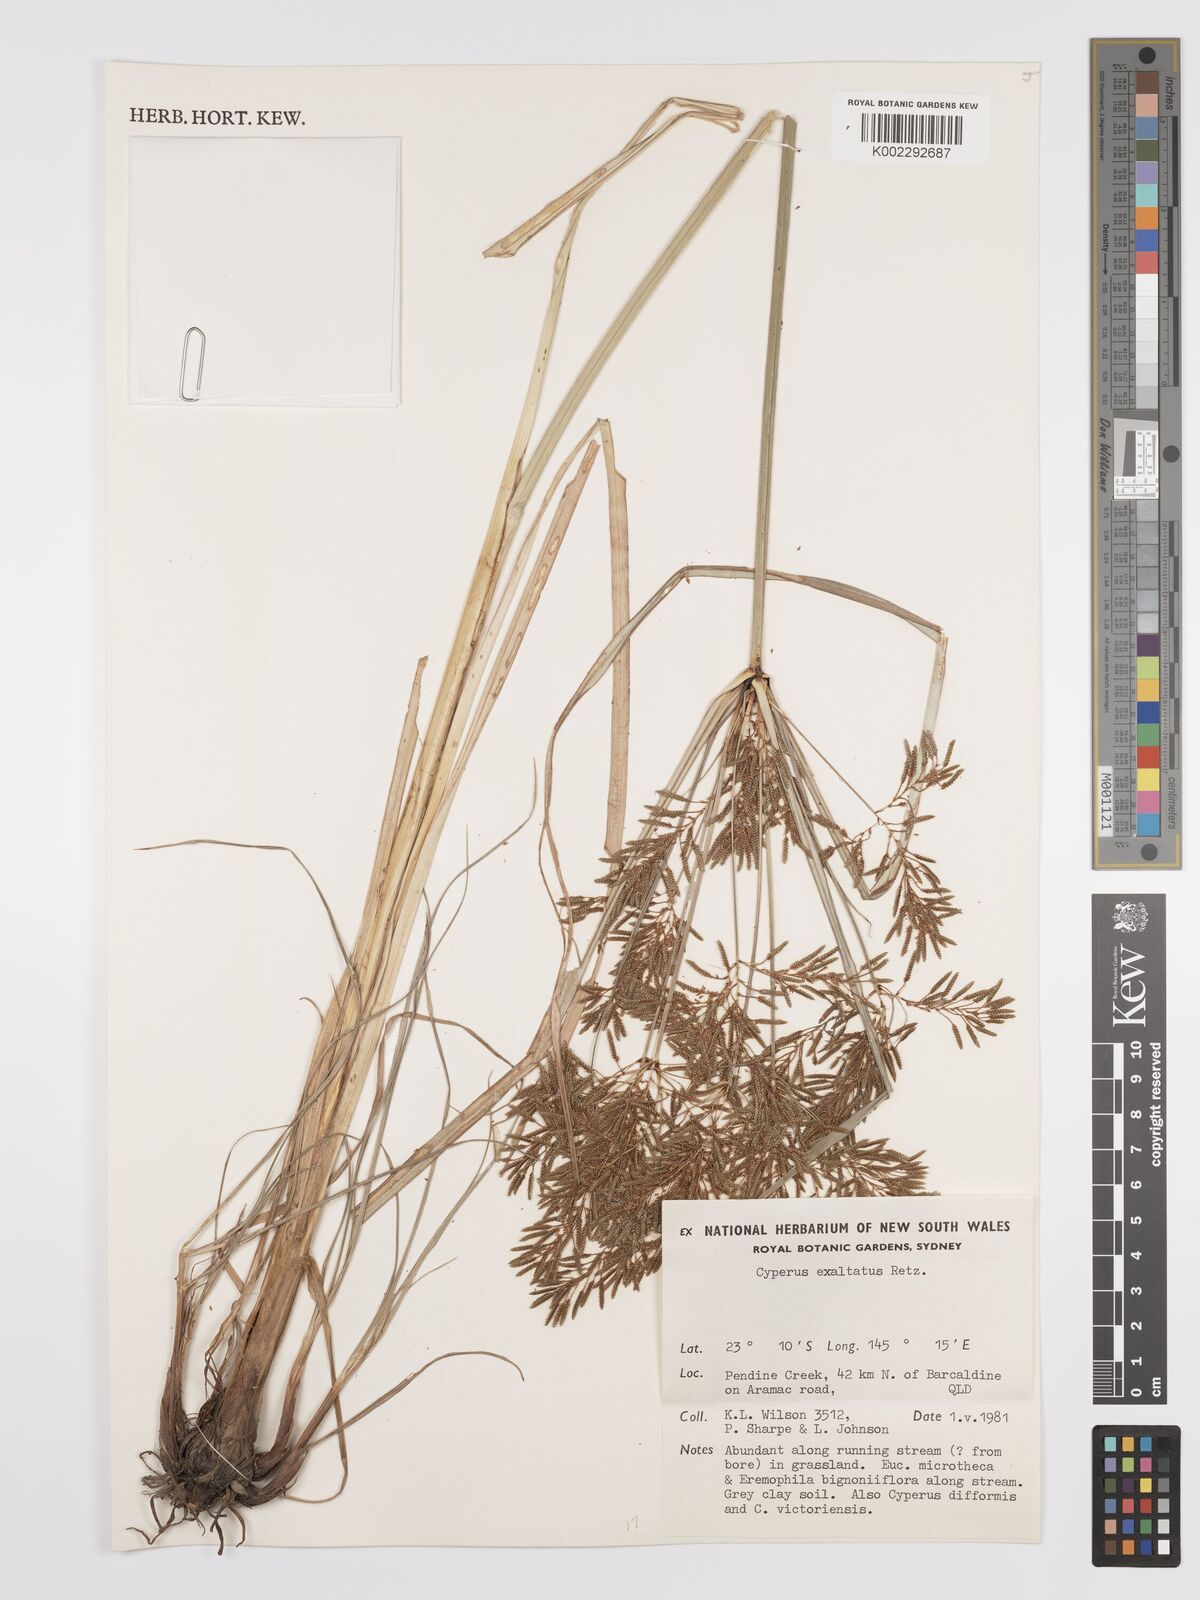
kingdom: Plantae
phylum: Tracheophyta
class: Liliopsida
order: Poales
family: Cyperaceae
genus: Cyperus
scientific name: Cyperus exaltatus
